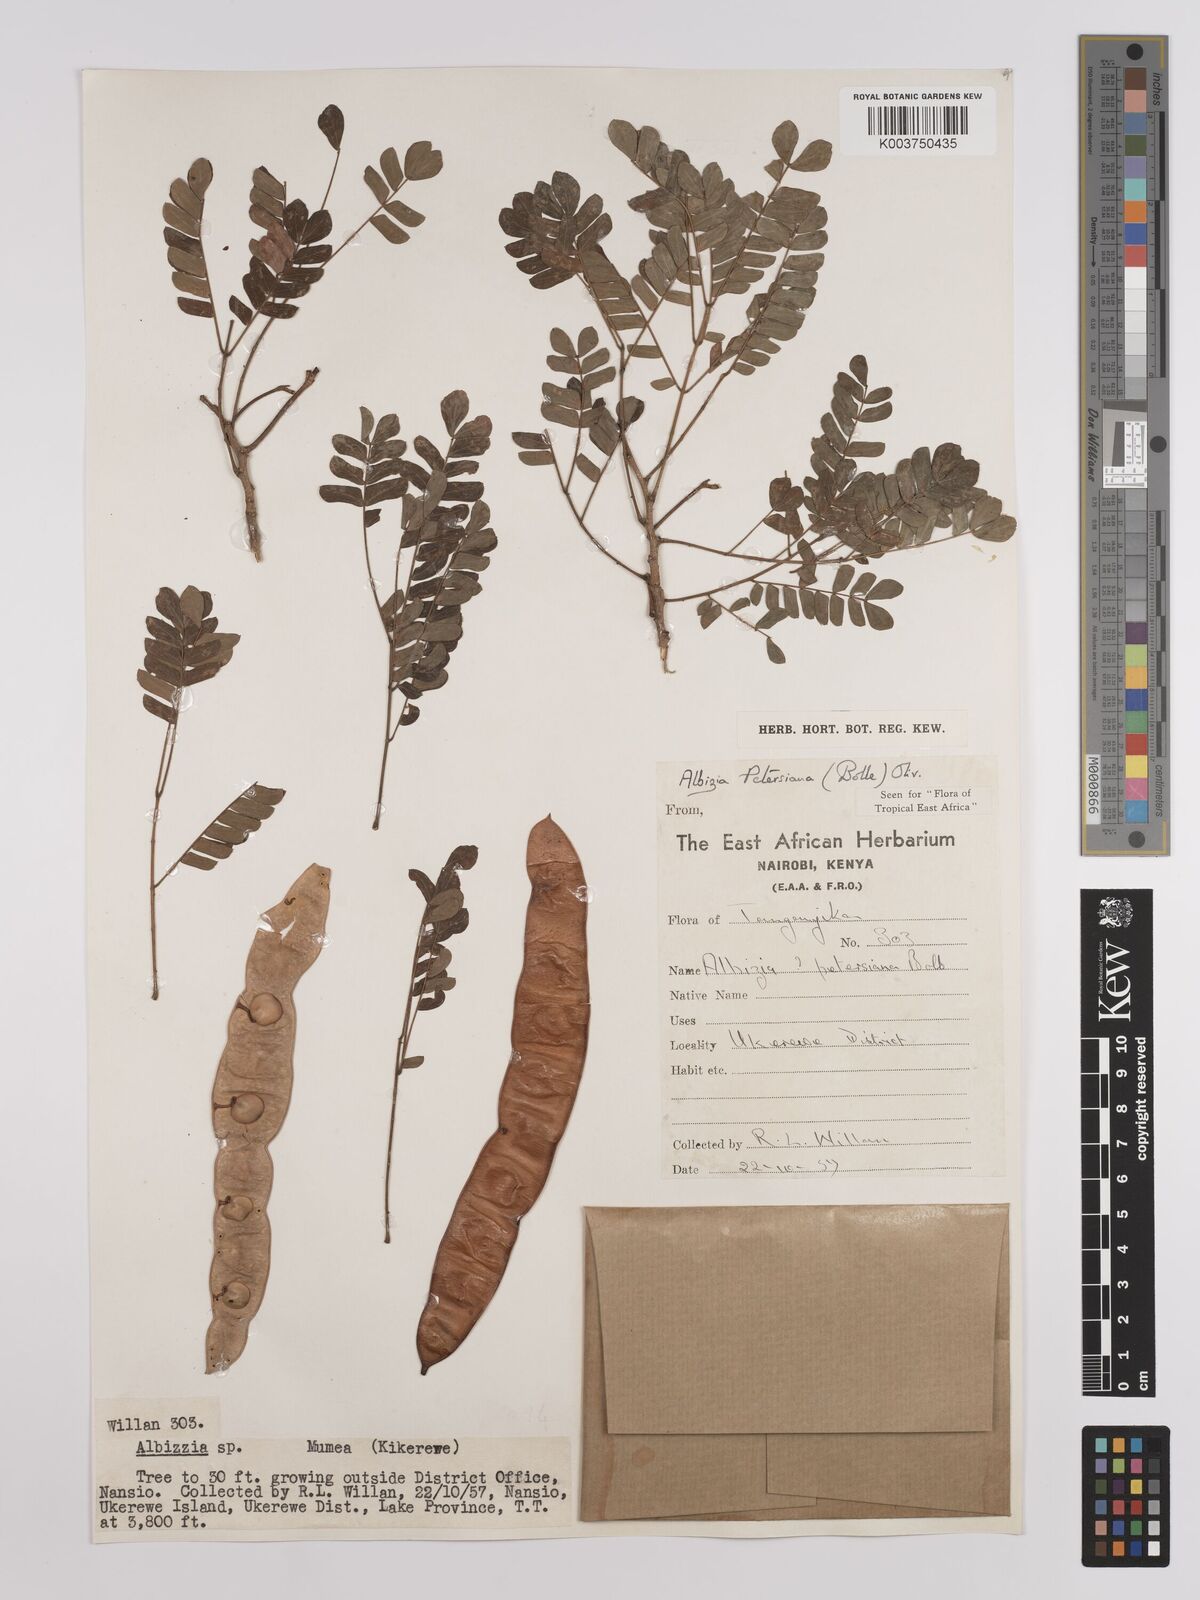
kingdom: Plantae
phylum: Tracheophyta
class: Magnoliopsida
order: Fabales
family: Fabaceae
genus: Albizia
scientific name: Albizia petersiana
